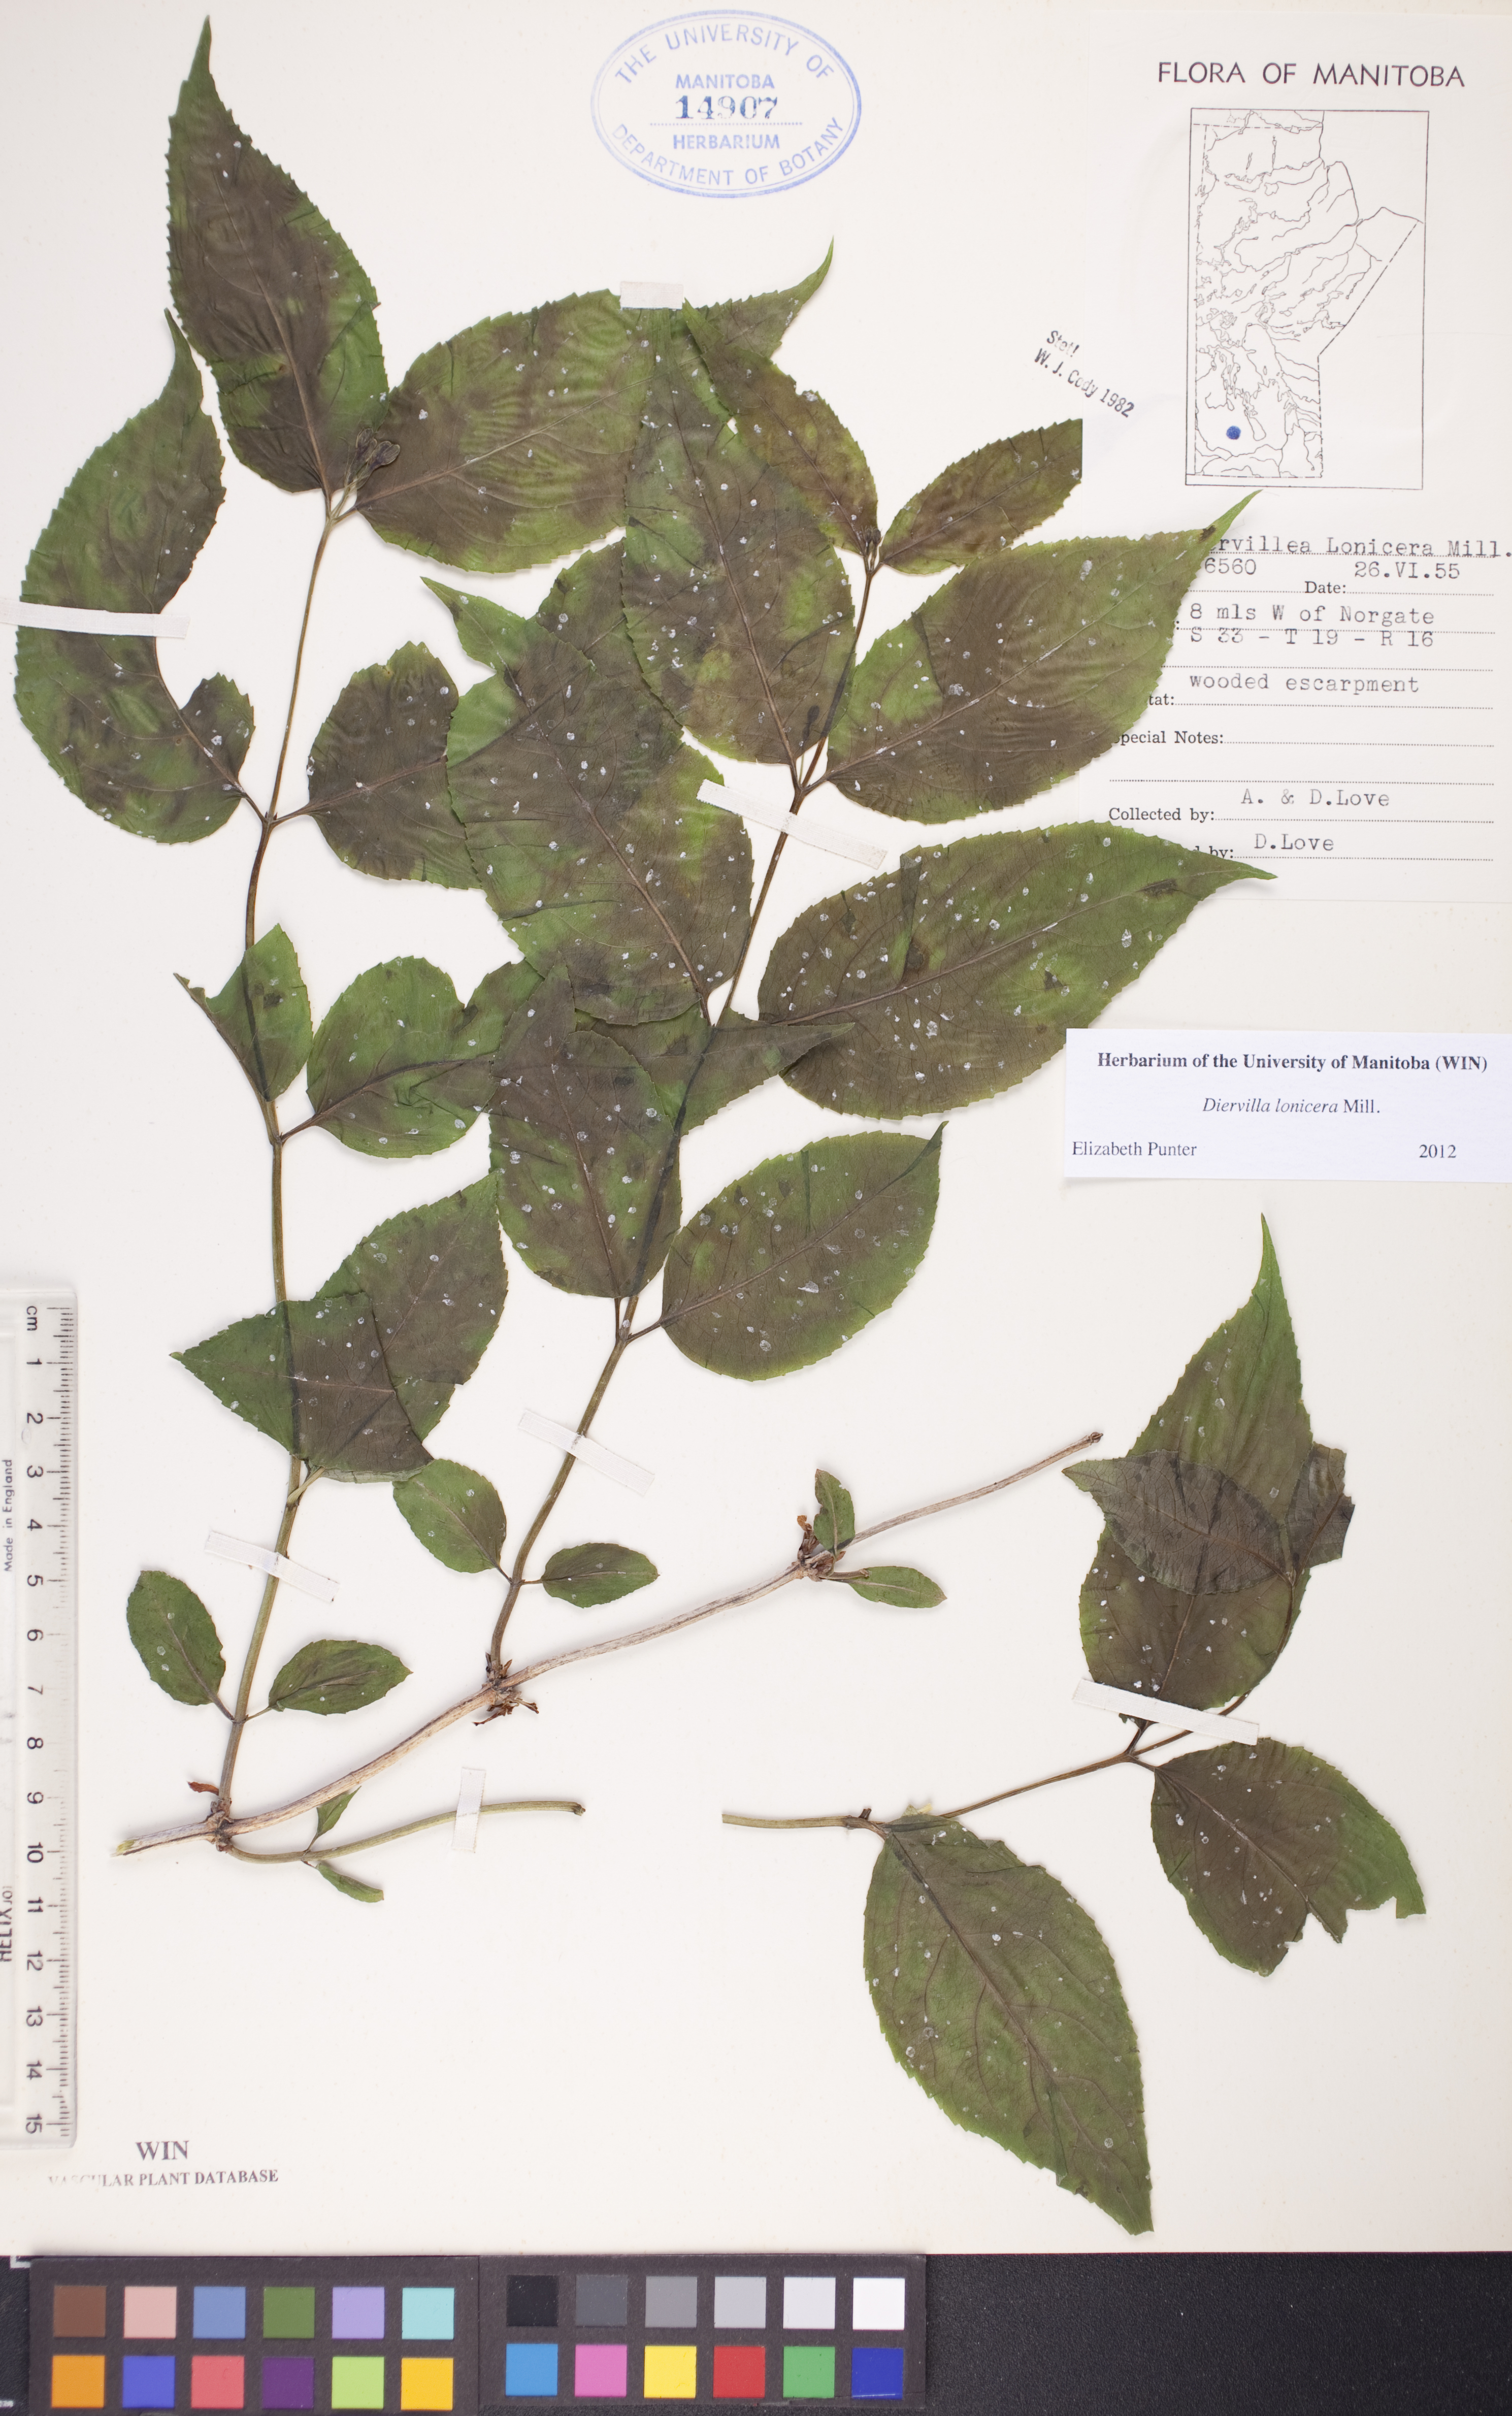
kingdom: Plantae
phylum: Tracheophyta
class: Magnoliopsida
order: Dipsacales
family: Caprifoliaceae
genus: Diervilla
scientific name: Diervilla lonicera
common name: Bush-honeysuckle
